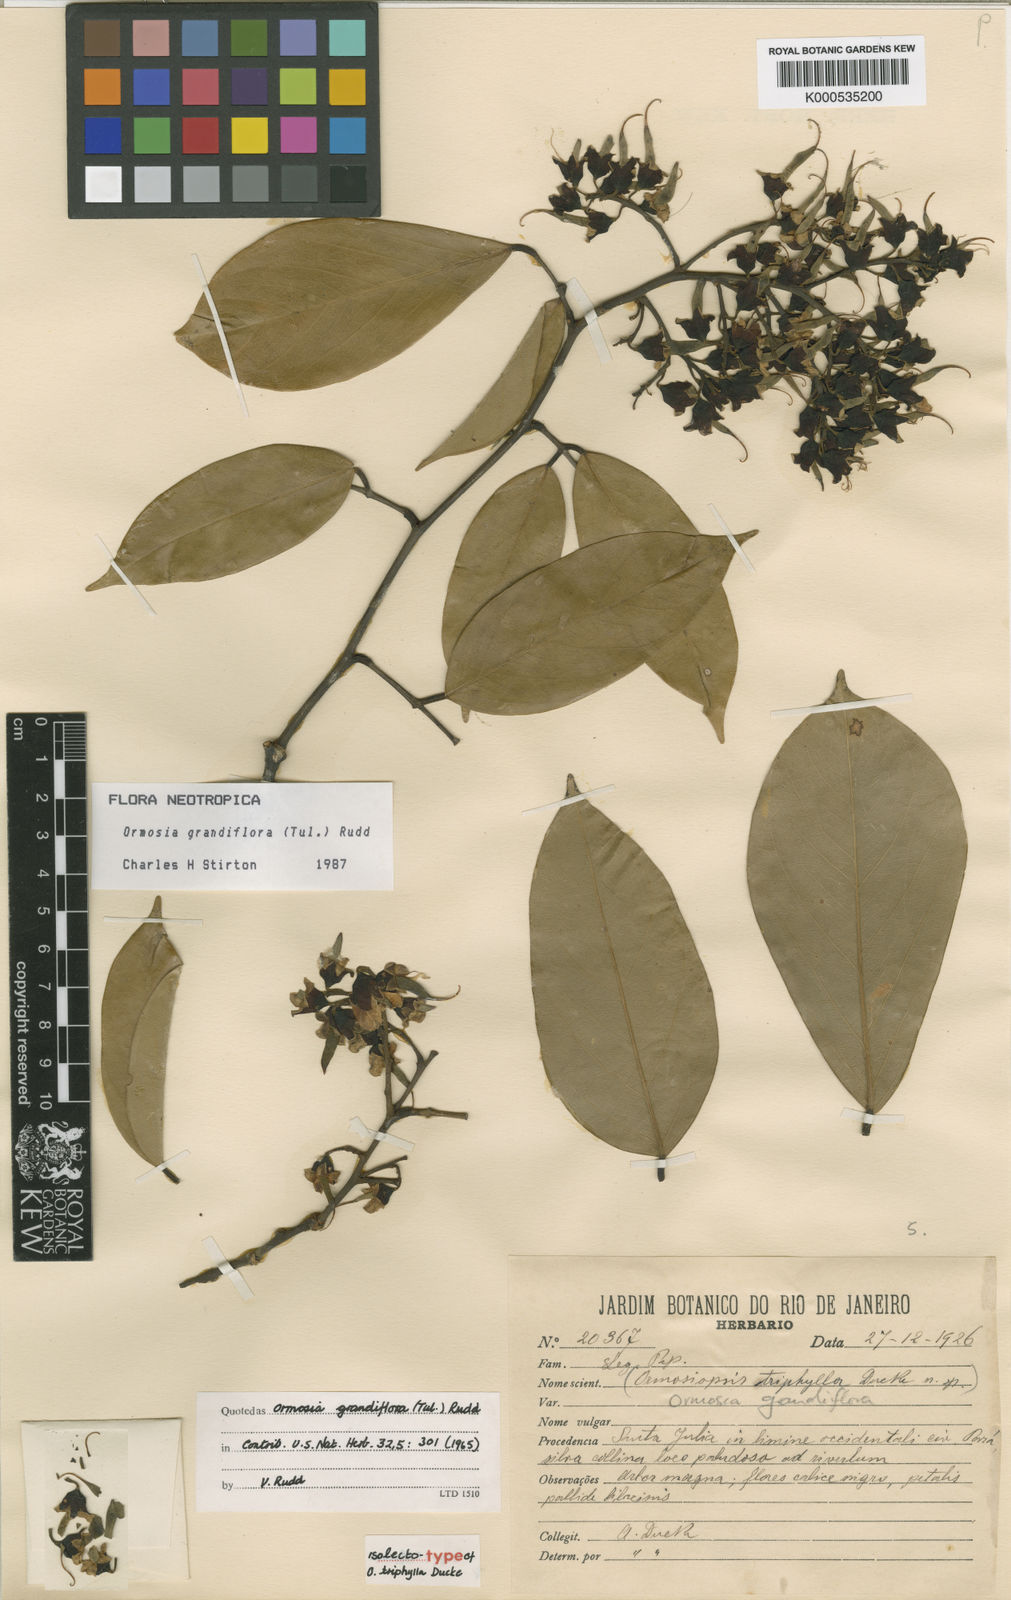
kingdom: Plantae
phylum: Tracheophyta
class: Magnoliopsida
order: Fabales
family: Fabaceae
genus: Ormosia
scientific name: Ormosia grandiflora
